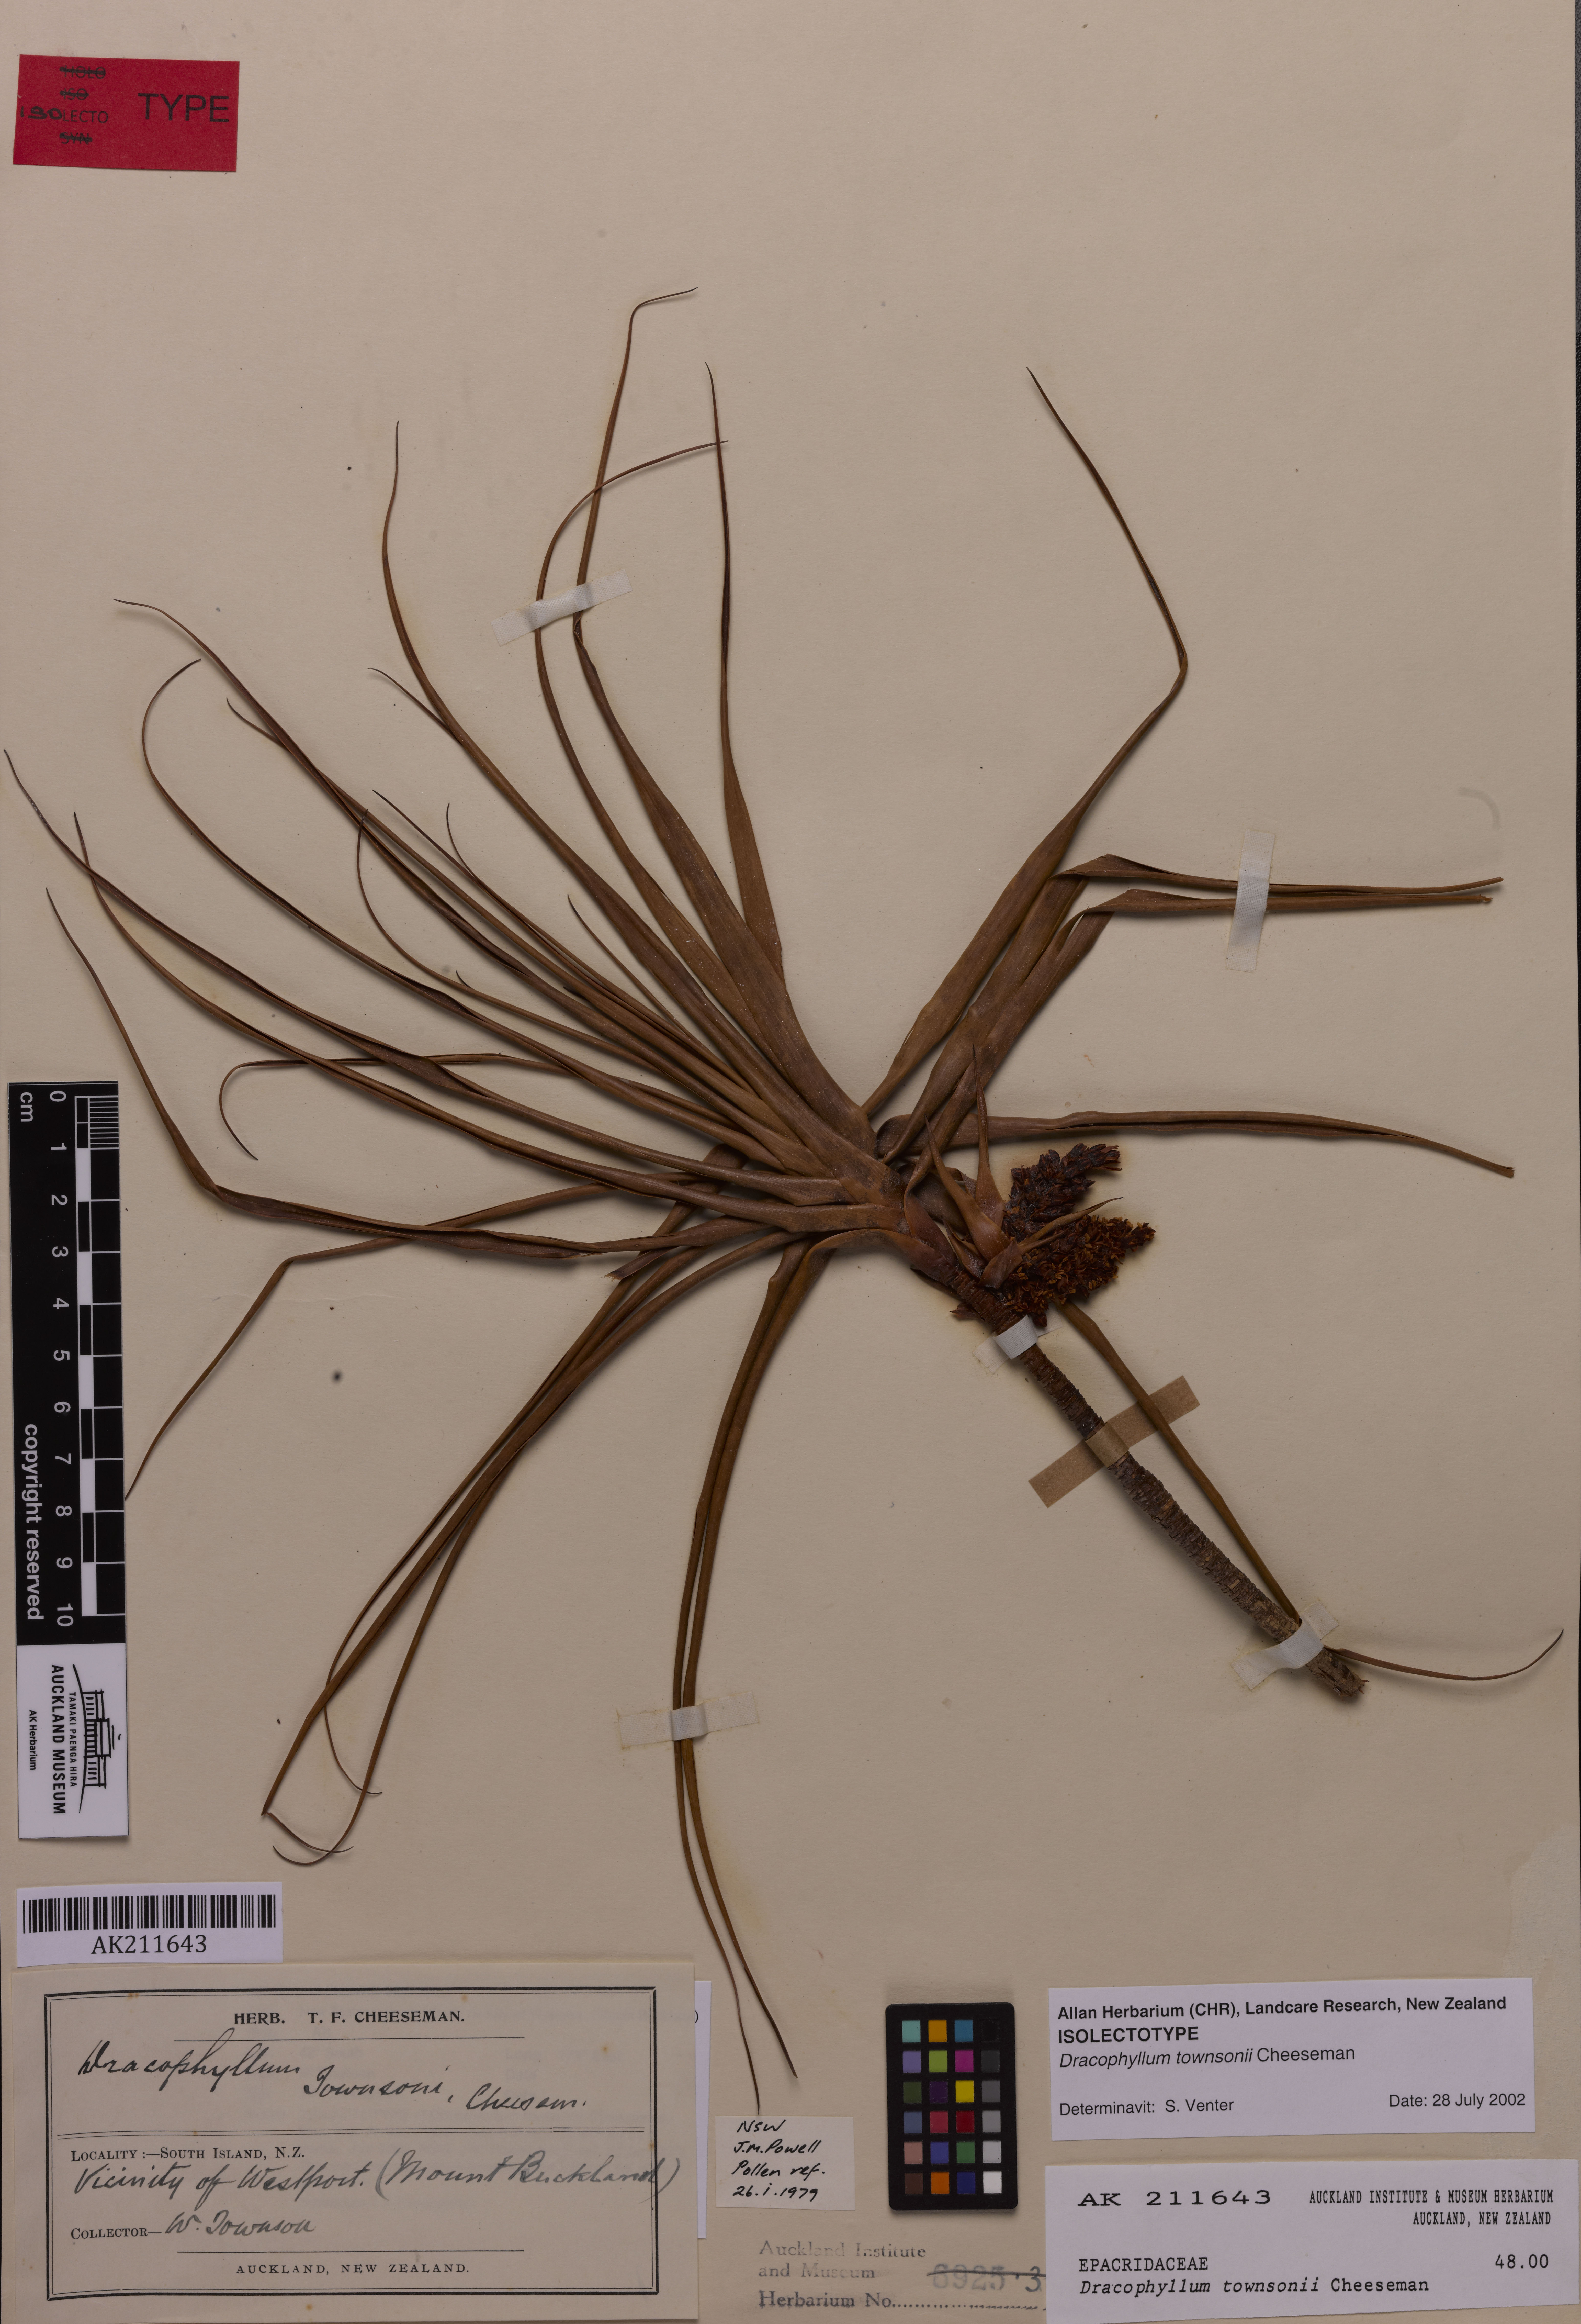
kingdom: Plantae
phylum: Tracheophyta
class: Magnoliopsida
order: Ericales
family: Ericaceae
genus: Dracophyllum
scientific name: Dracophyllum townsonii
